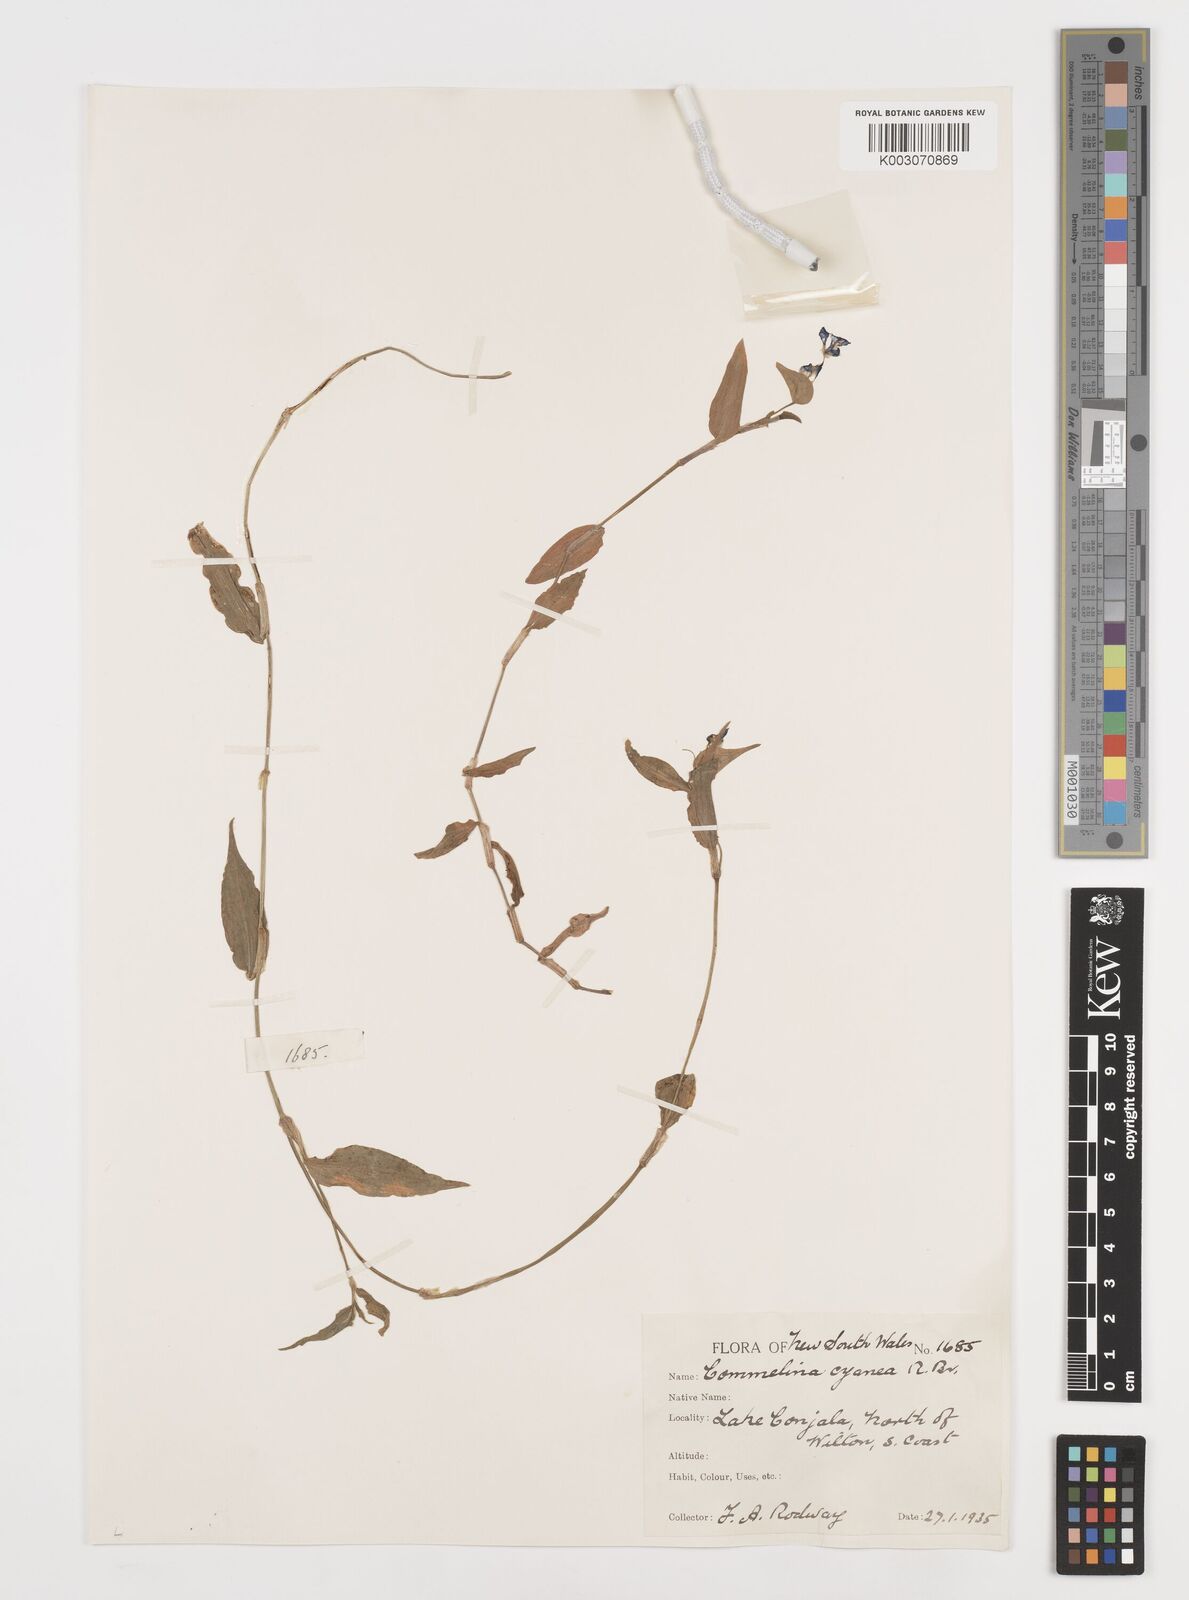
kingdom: Plantae
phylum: Tracheophyta
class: Liliopsida
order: Commelinales
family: Commelinaceae
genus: Commelina
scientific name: Commelina cyanea
